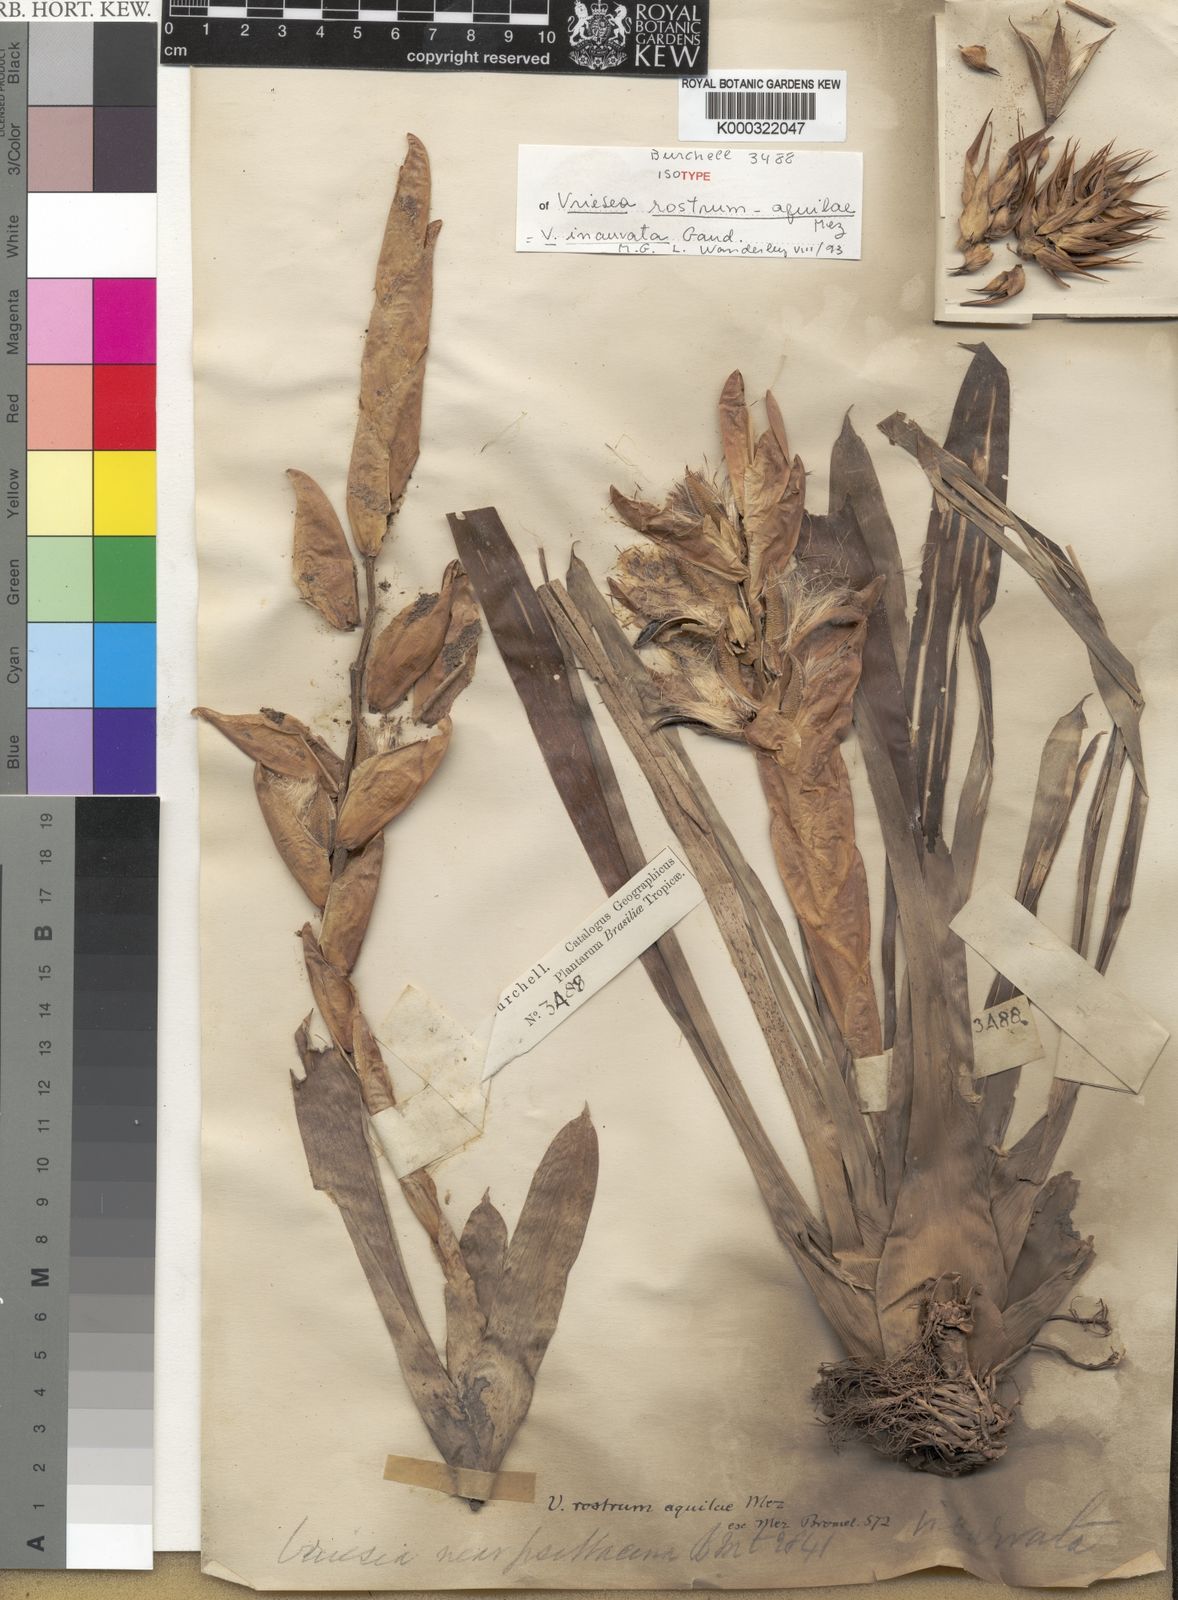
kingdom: Plantae
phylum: Tracheophyta
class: Liliopsida
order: Poales
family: Bromeliaceae
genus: Vriesea
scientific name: Vriesea incurvata
